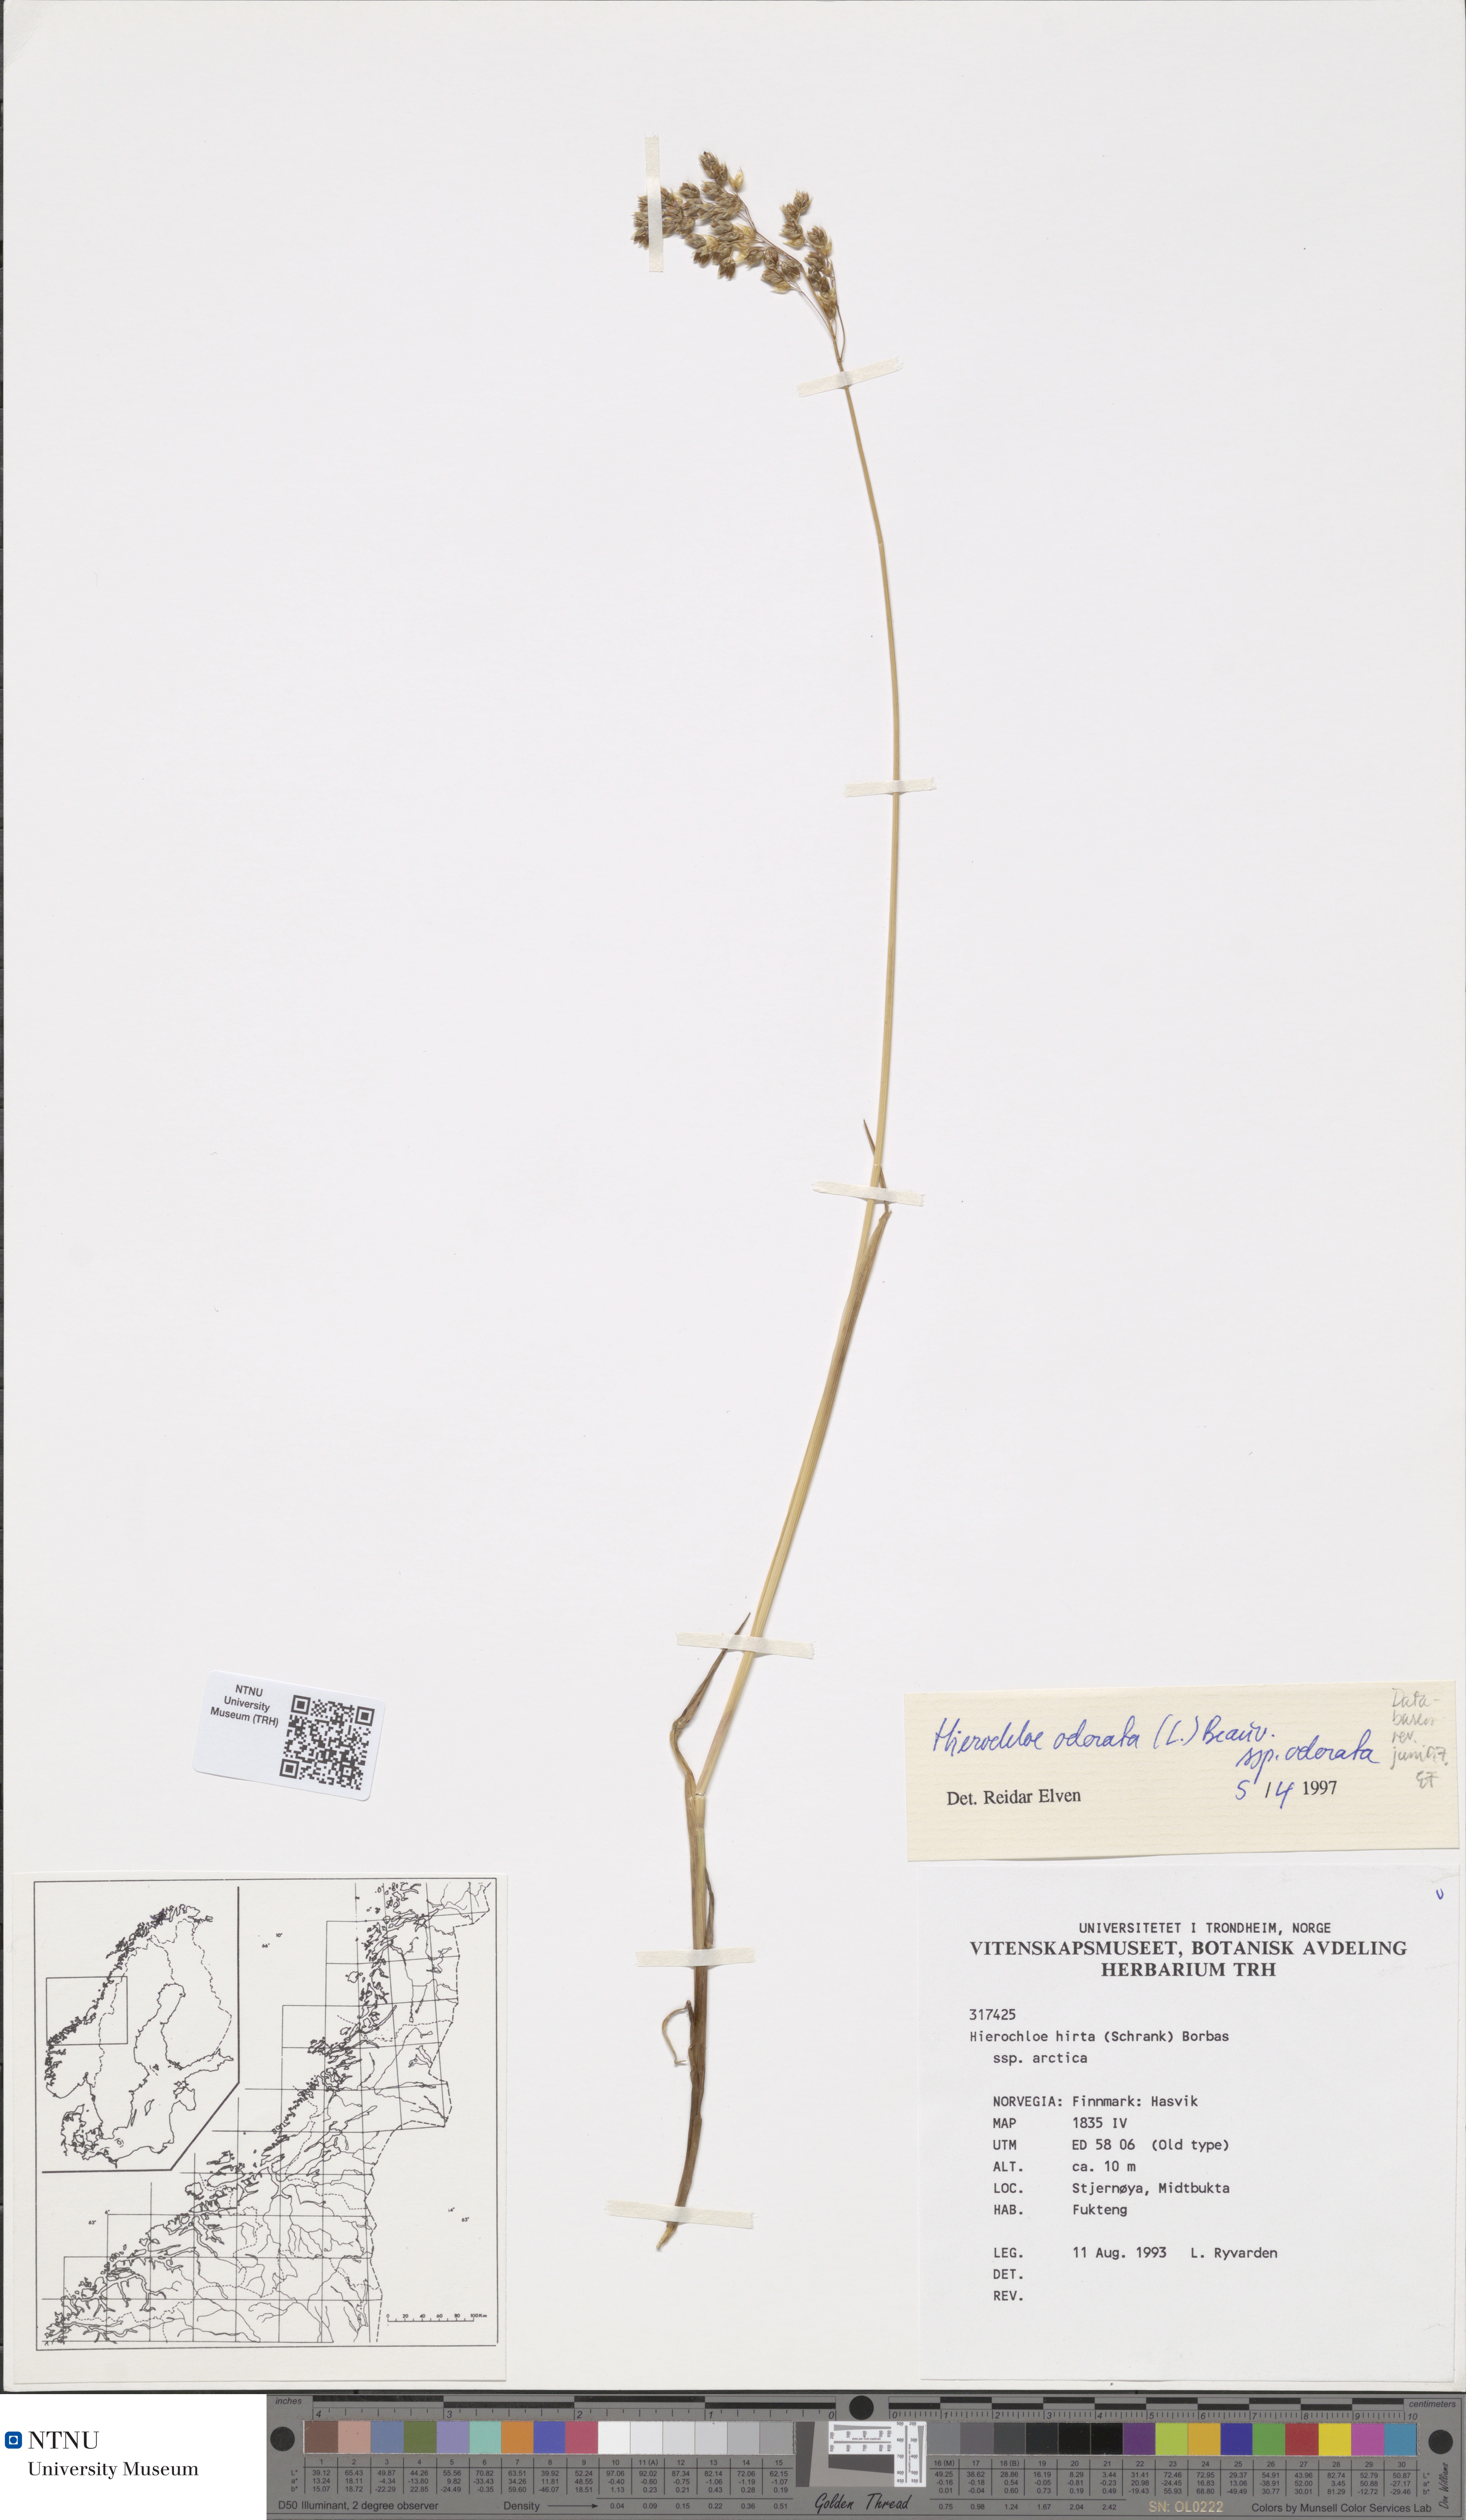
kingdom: Plantae
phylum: Tracheophyta
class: Liliopsida
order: Poales
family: Poaceae
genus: Anthoxanthum
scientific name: Anthoxanthum nitens
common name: Holy grass
